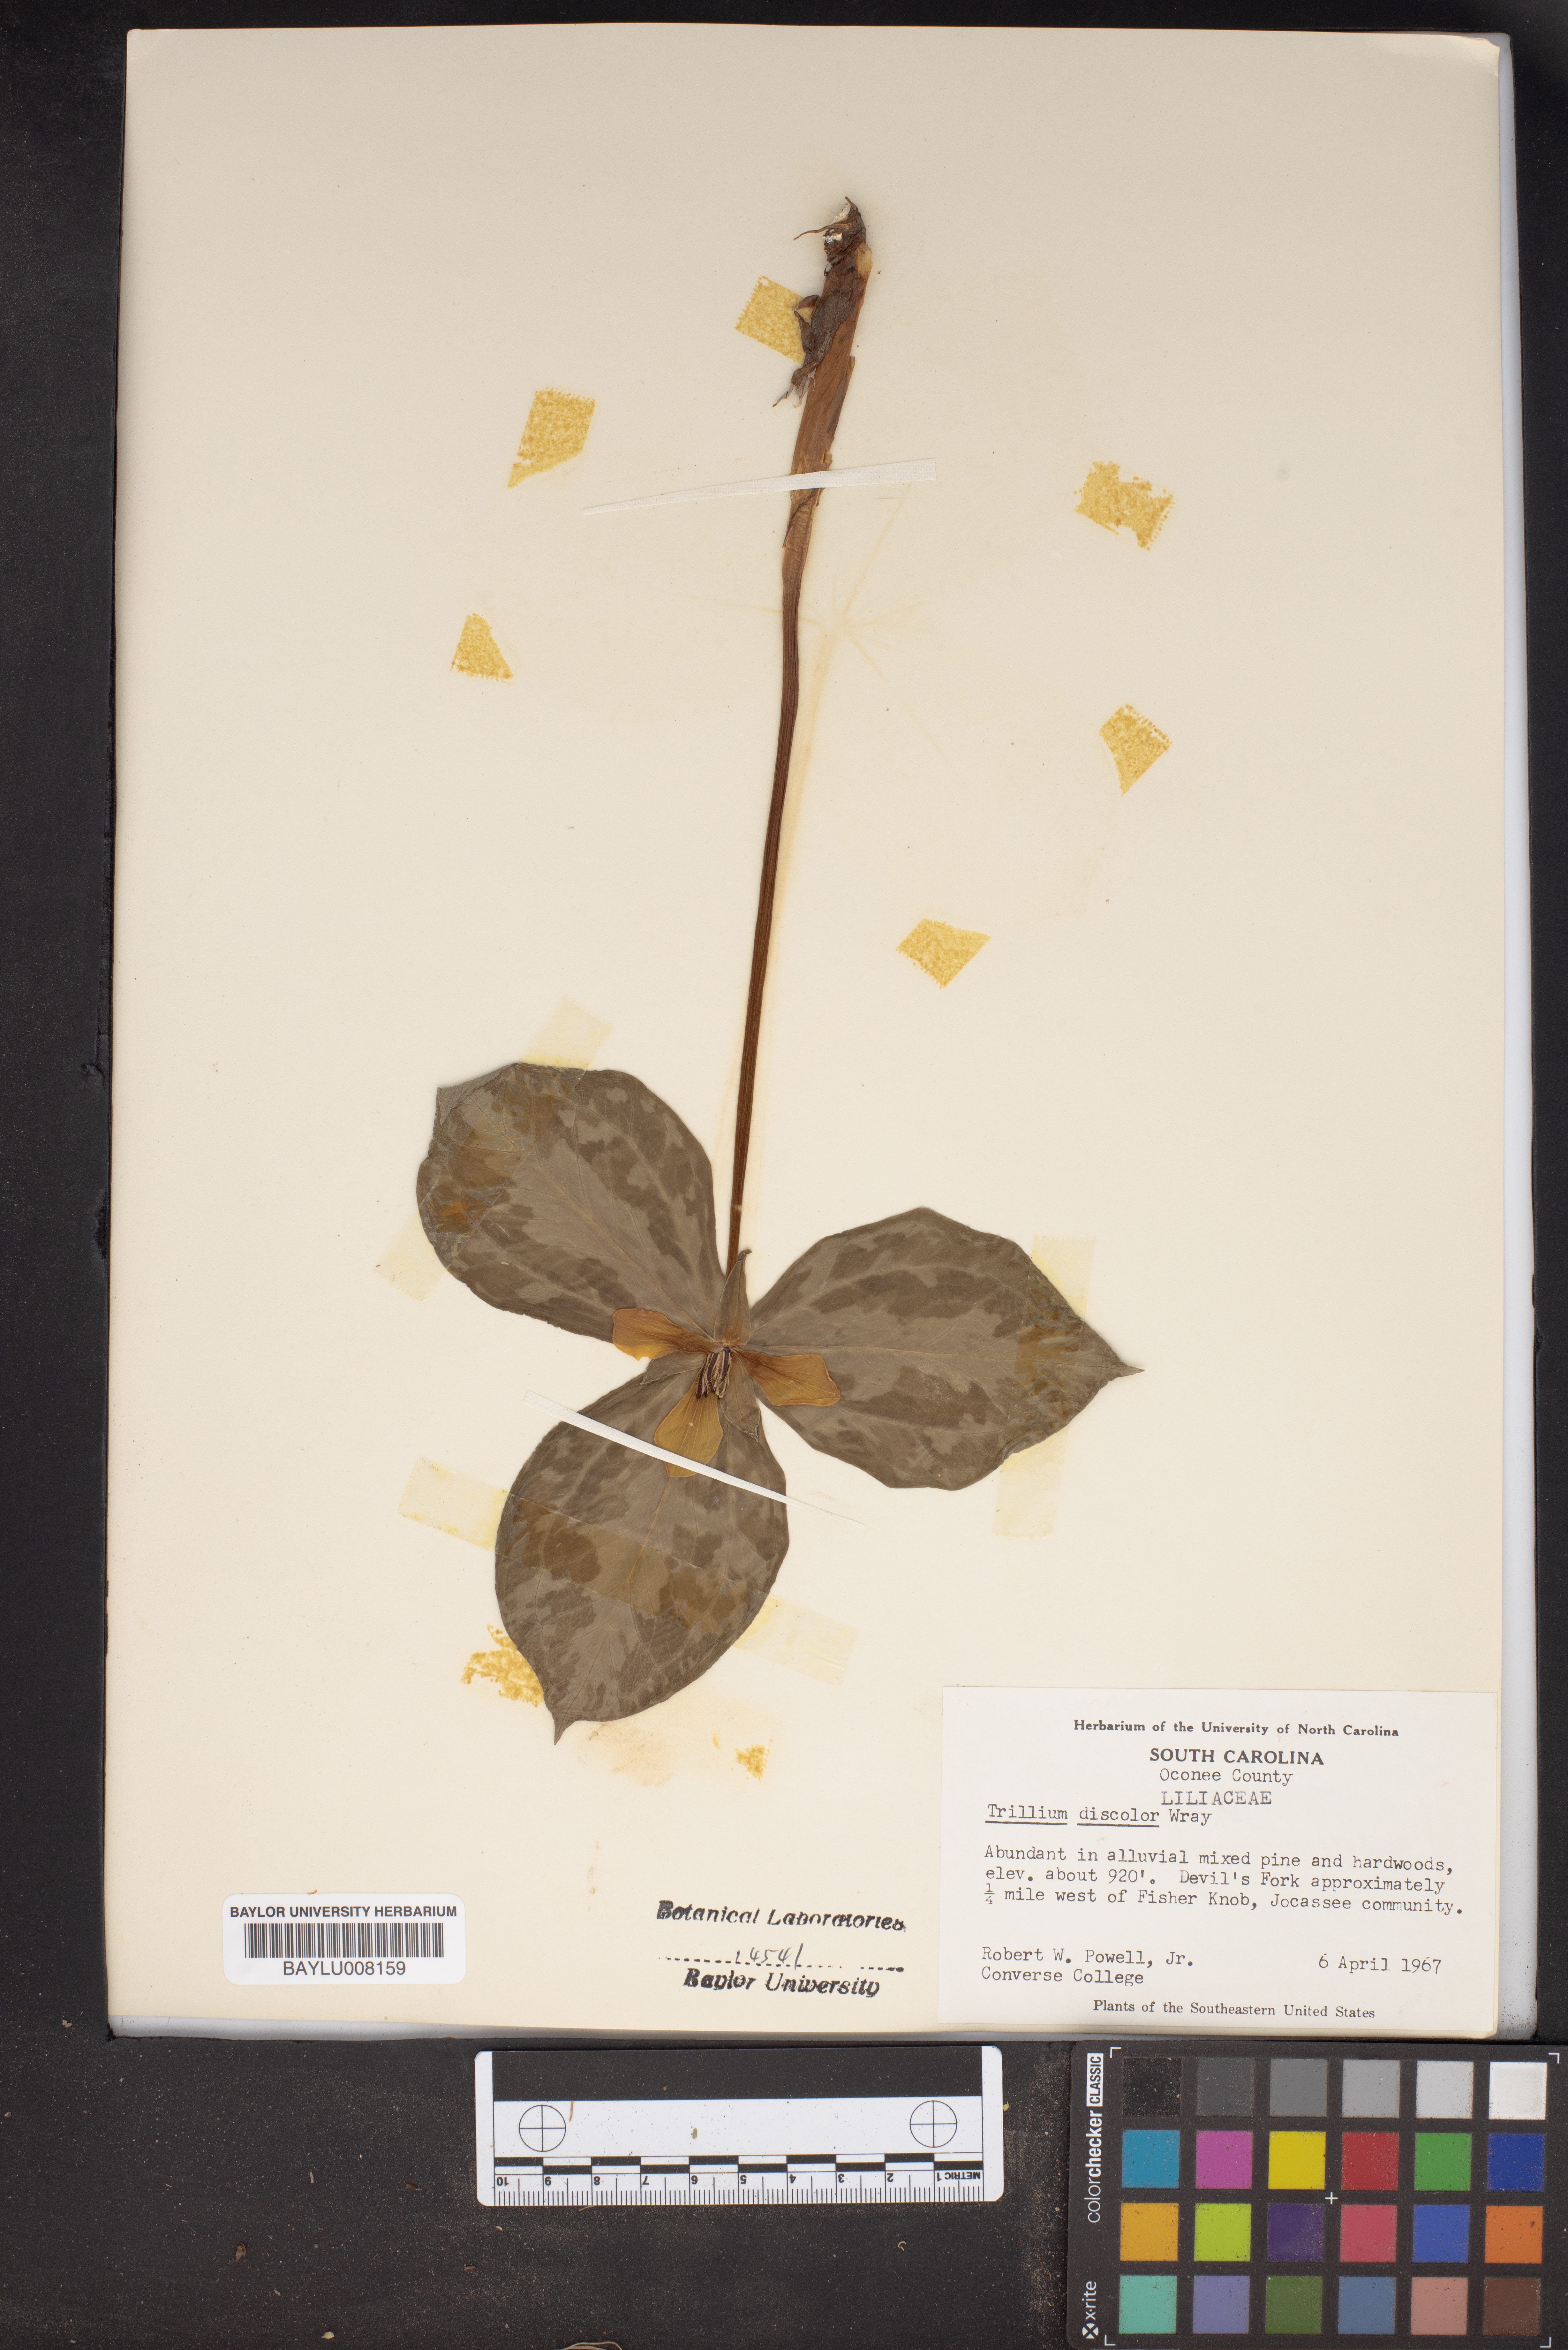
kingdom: Plantae
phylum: Tracheophyta
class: Liliopsida
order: Liliales
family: Melanthiaceae
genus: Trillium
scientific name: Trillium discolor
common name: Faded trillium
